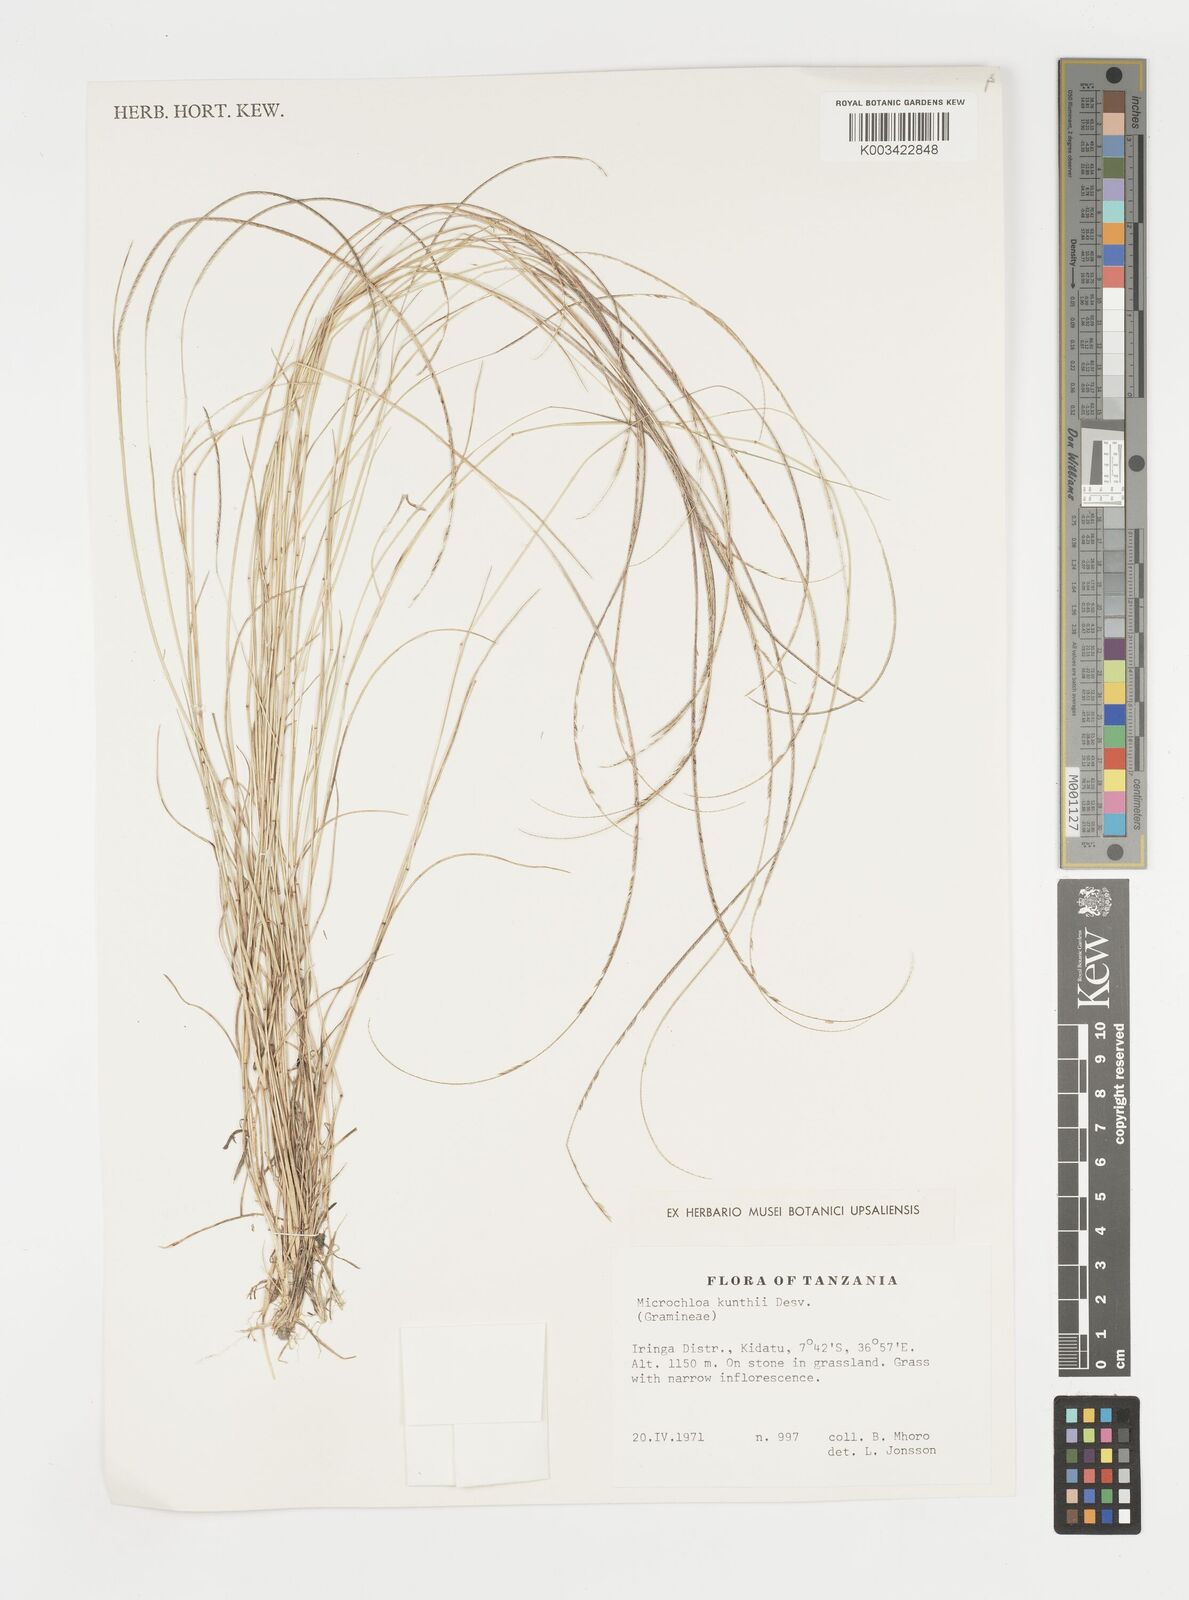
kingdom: Plantae
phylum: Tracheophyta
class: Liliopsida
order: Poales
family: Poaceae
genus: Microchloa
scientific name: Microchloa kunthii
